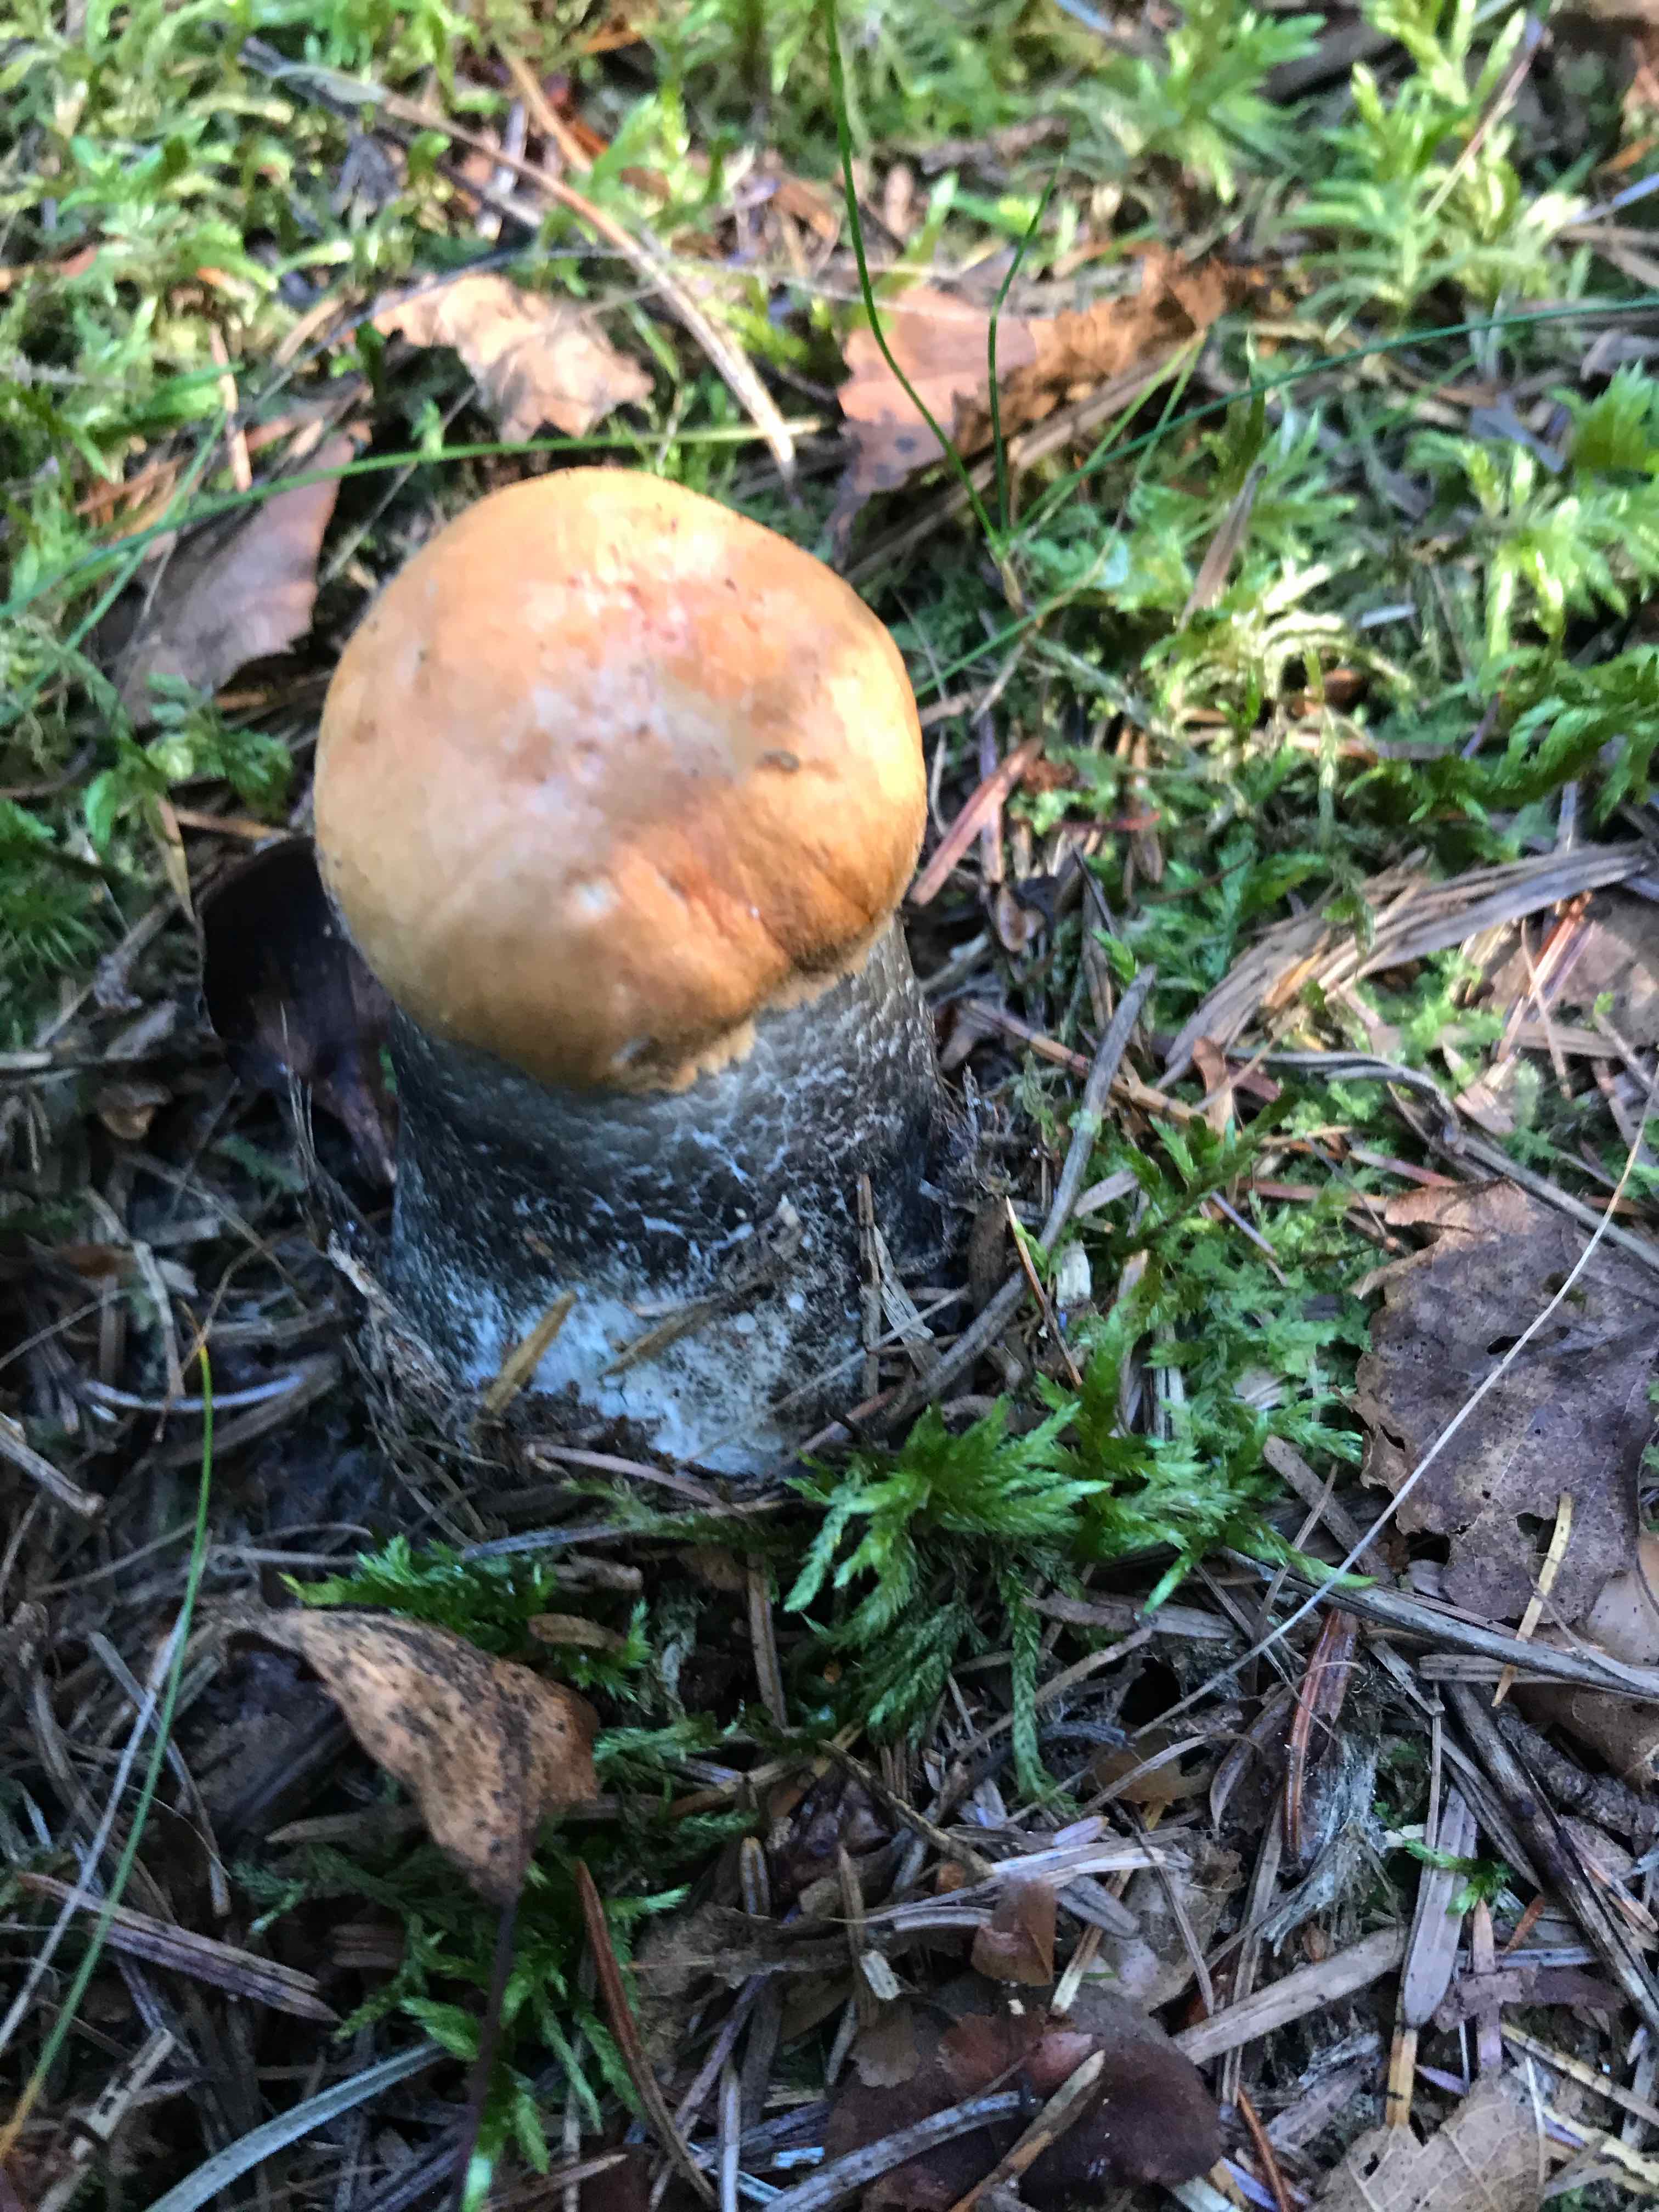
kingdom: Fungi
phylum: Basidiomycota
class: Agaricomycetes
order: Boletales
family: Boletaceae
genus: Leccinum
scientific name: Leccinum versipelle
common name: orange skælrørhat
